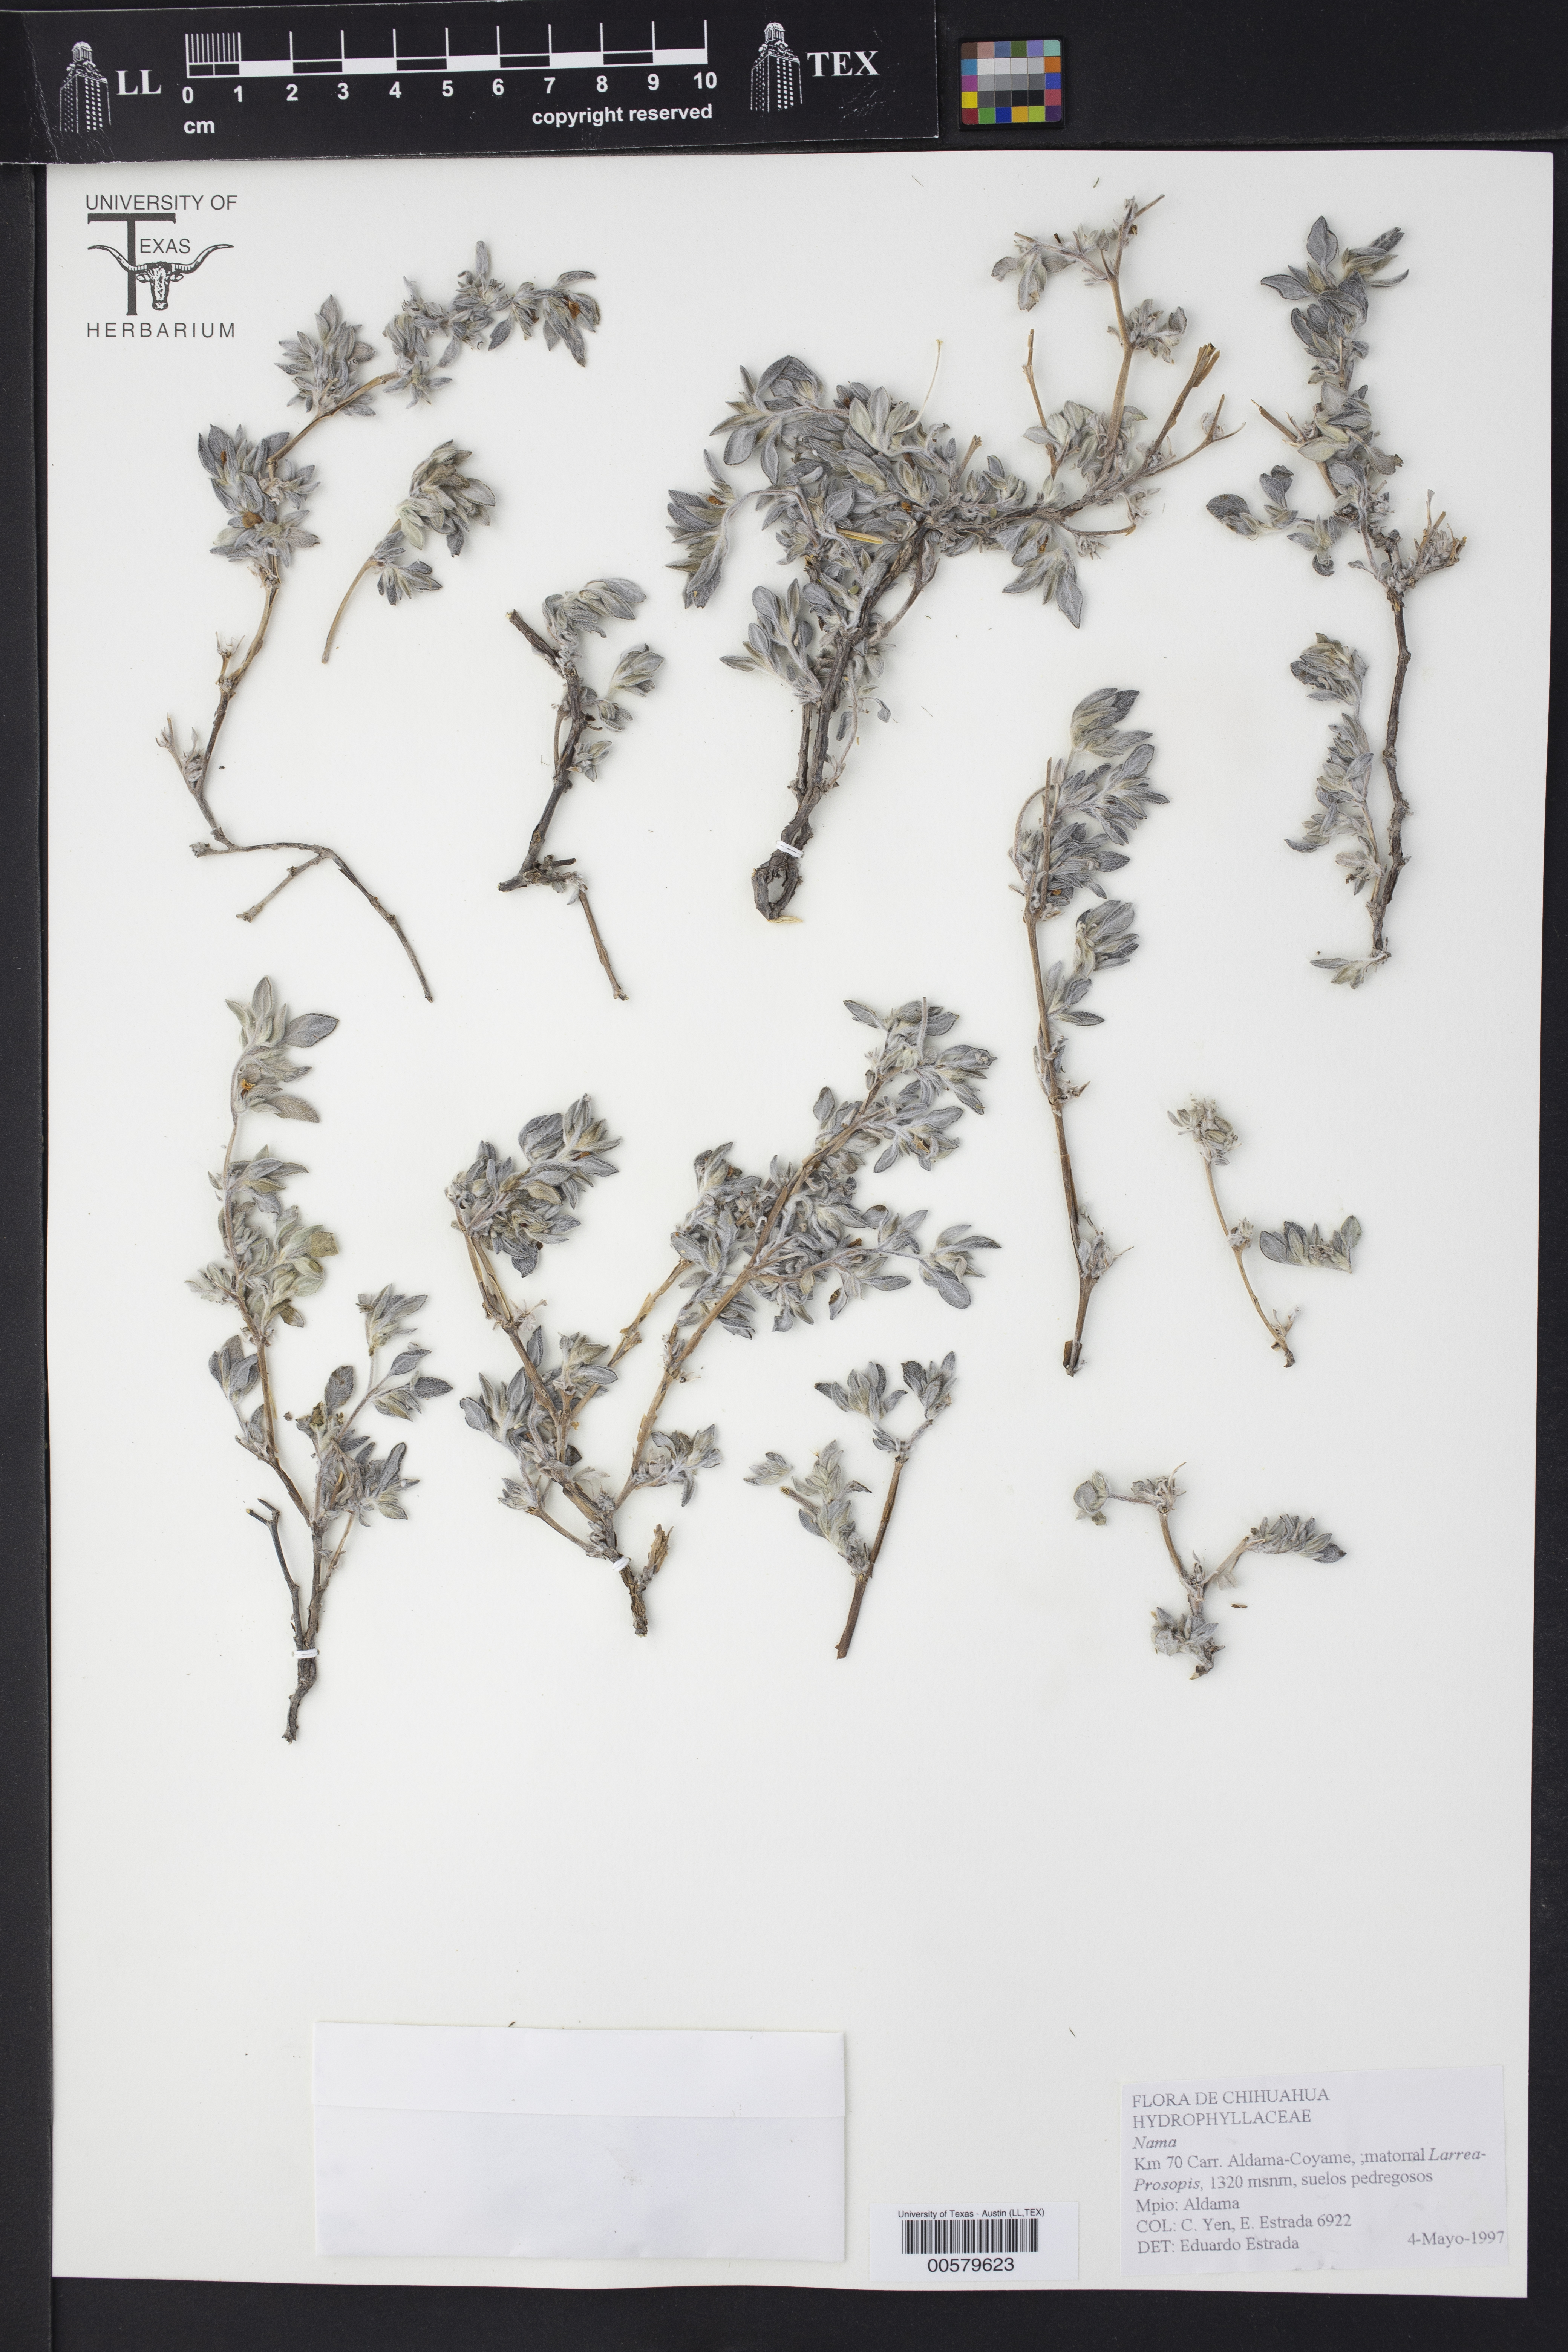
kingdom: Plantae
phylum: Tracheophyta
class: Magnoliopsida
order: Boraginales
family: Ehretiaceae
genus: Tiquilia
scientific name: Tiquilia canescens
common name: Hairy tiquilia
